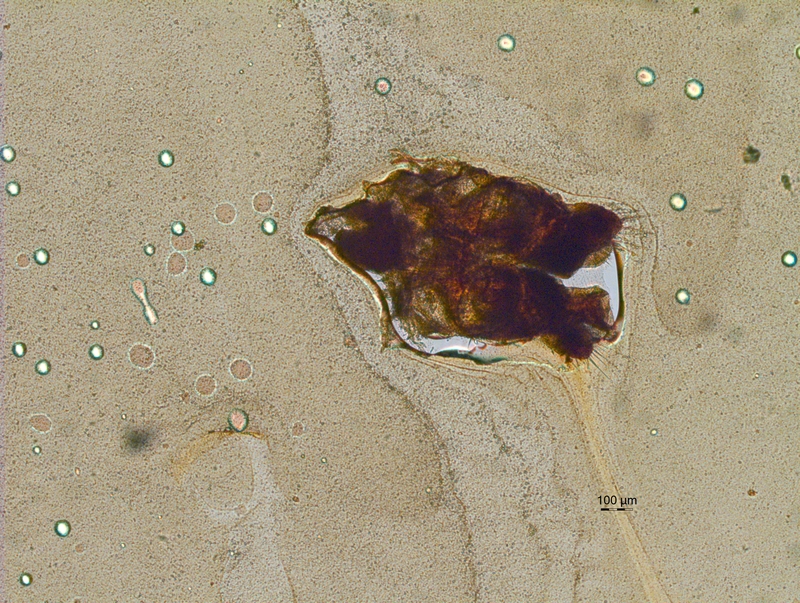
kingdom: Animalia
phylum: Arthropoda
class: Diplopoda
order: Chordeumatida
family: Chordeumatidae
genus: Mycogona
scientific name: Mycogona germanica
